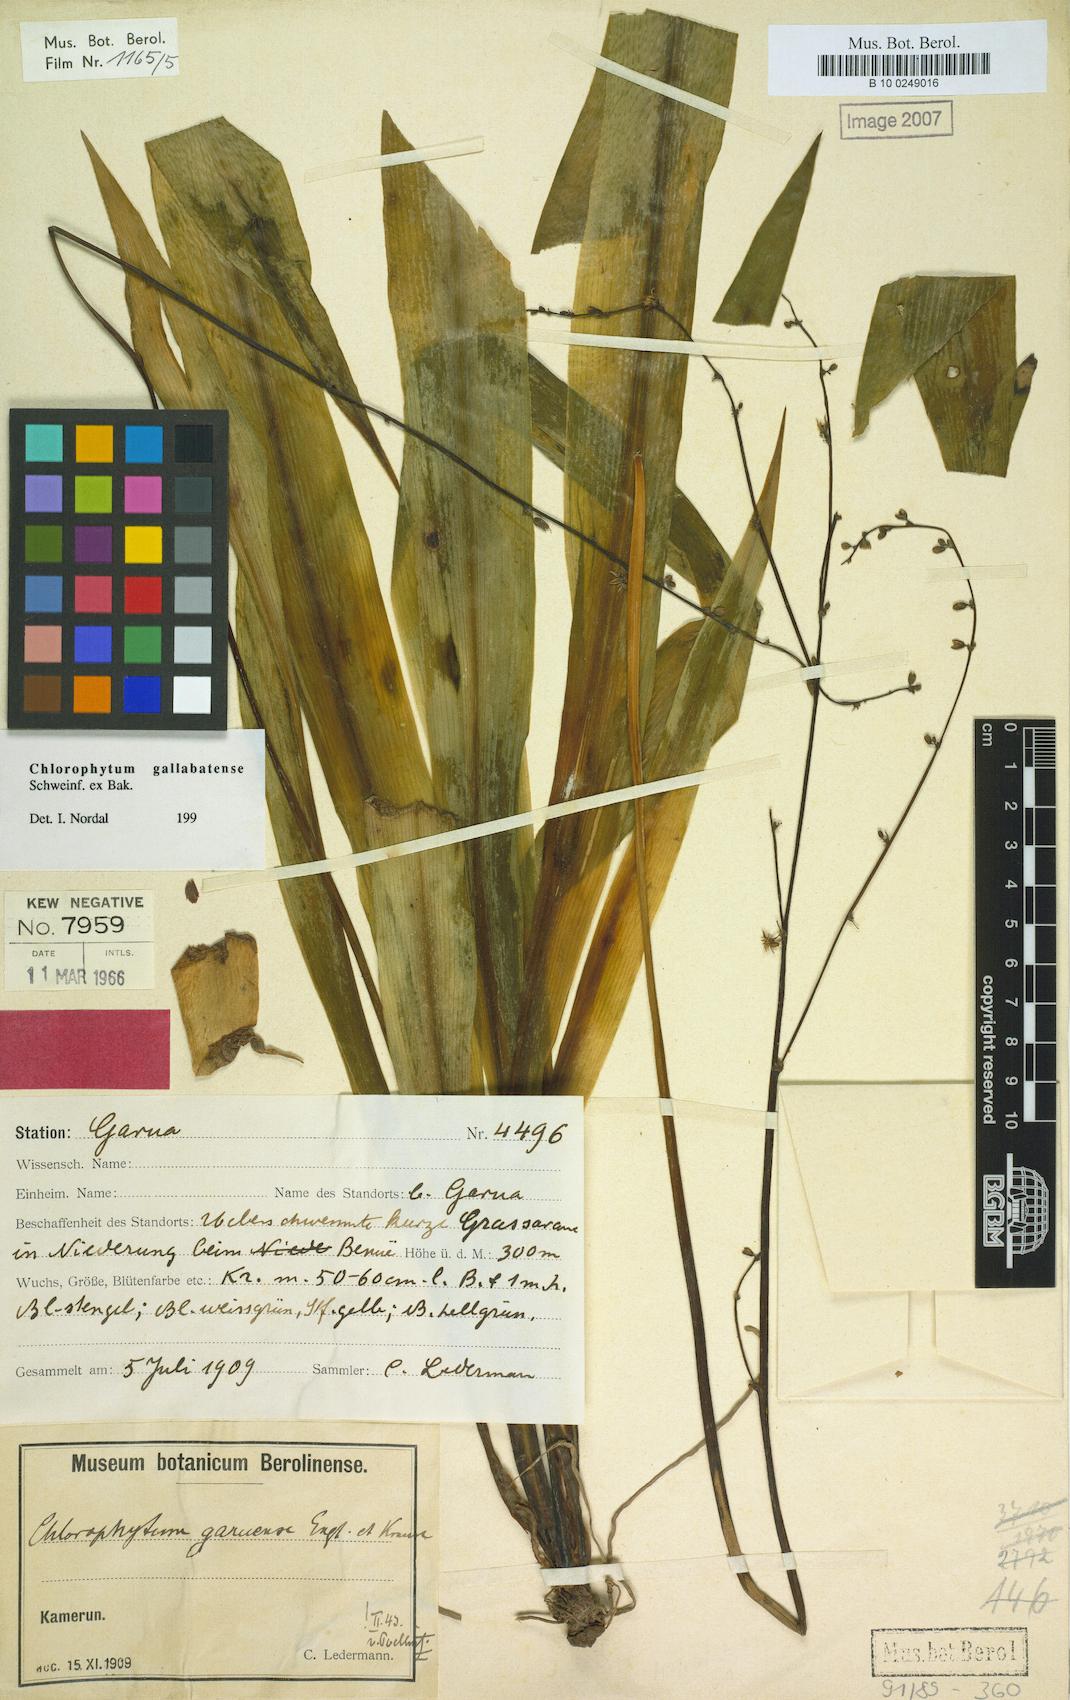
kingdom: Plantae
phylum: Tracheophyta
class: Liliopsida
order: Asparagales
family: Asparagaceae
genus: Chlorophytum
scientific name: Chlorophytum gallabatense
